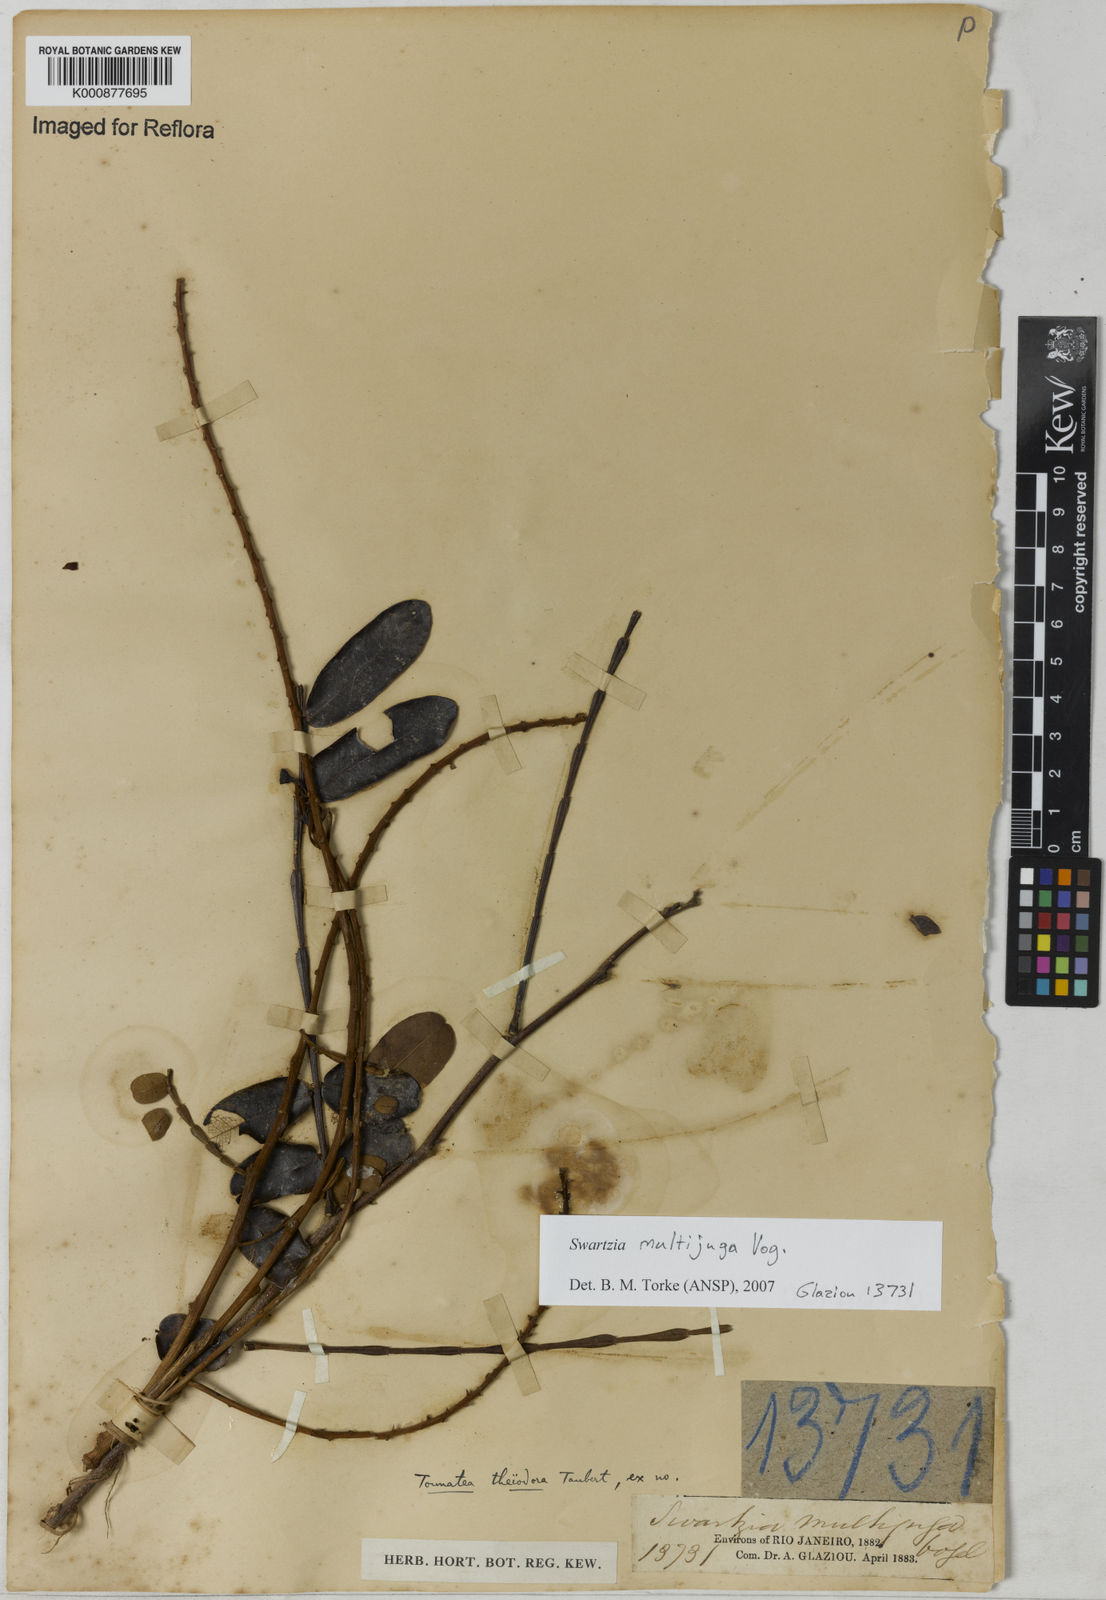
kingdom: Plantae
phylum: Tracheophyta
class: Magnoliopsida
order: Fabales
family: Fabaceae
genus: Swartzia
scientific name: Swartzia multijuga
